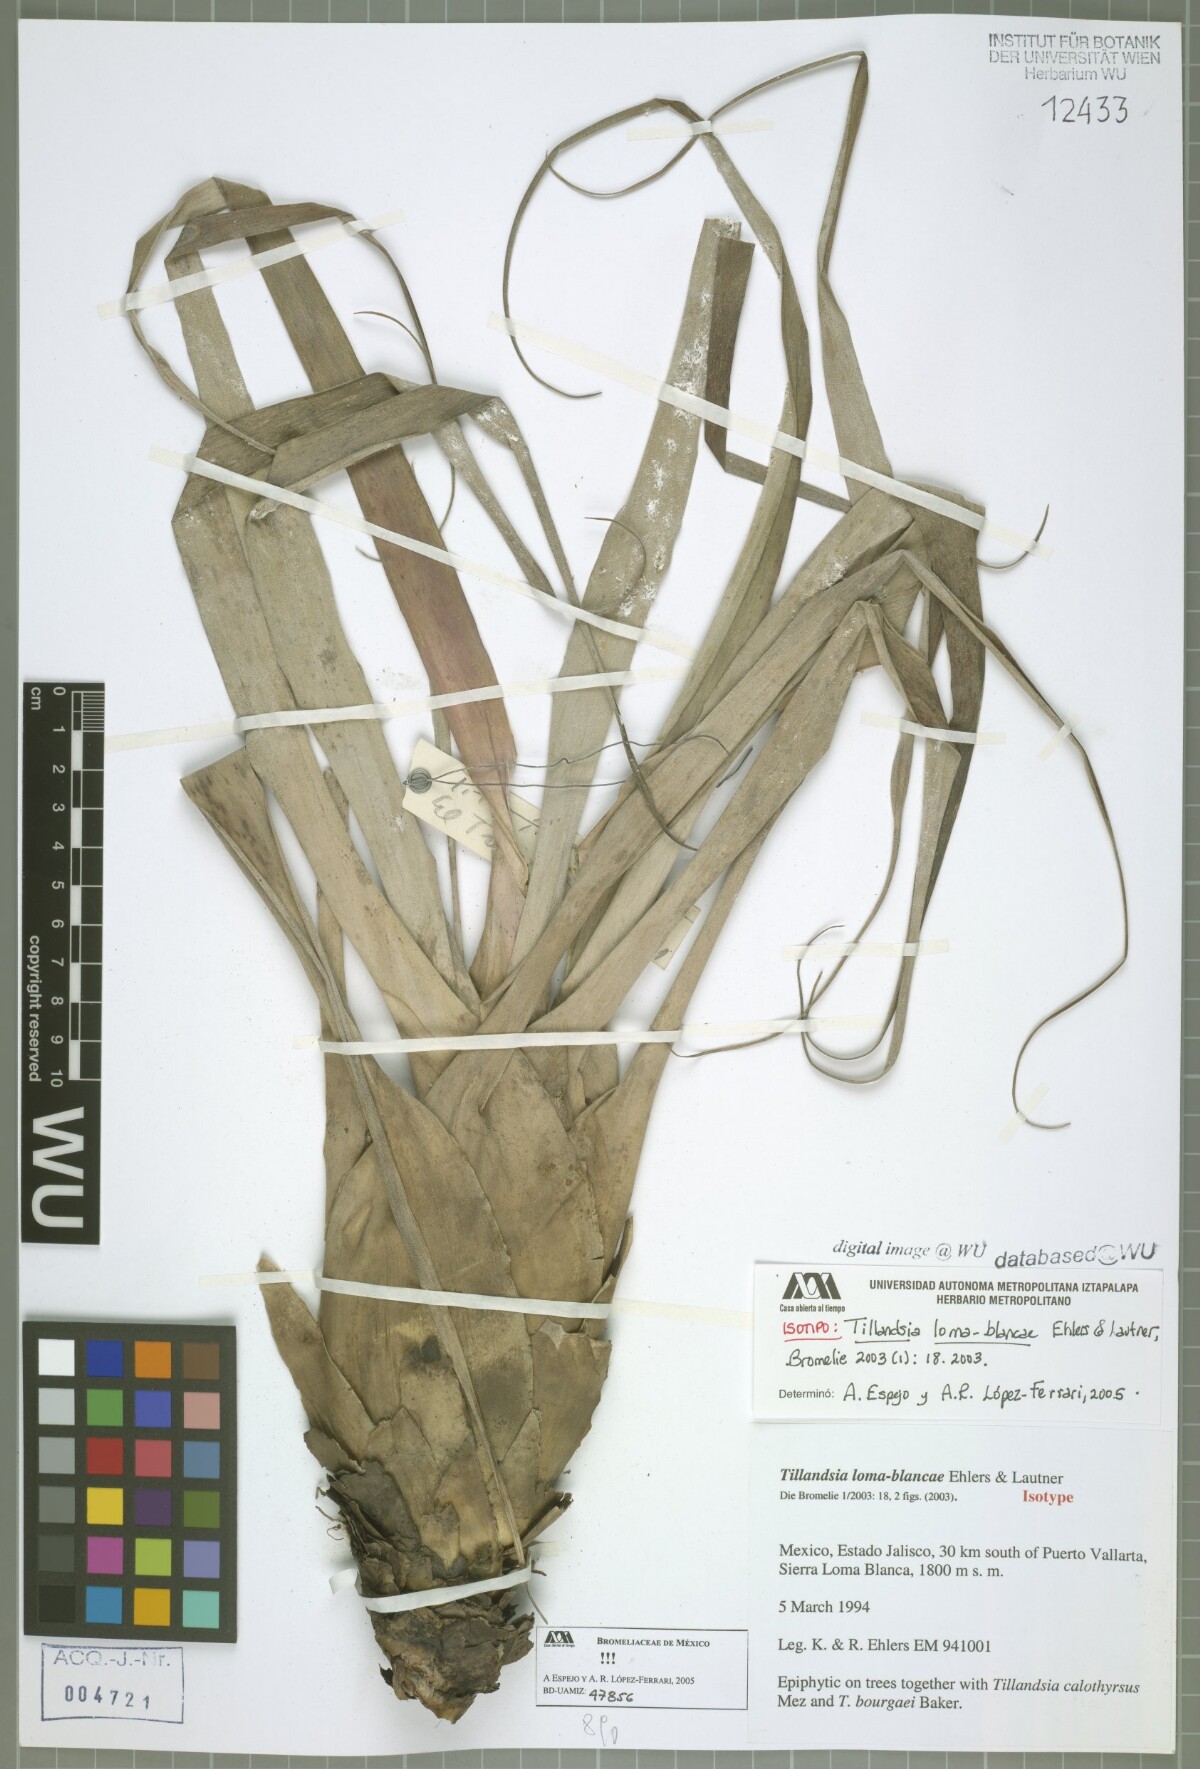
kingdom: Plantae
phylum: Tracheophyta
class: Liliopsida
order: Poales
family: Bromeliaceae
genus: Tillandsia
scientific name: Tillandsia loma-blancae
